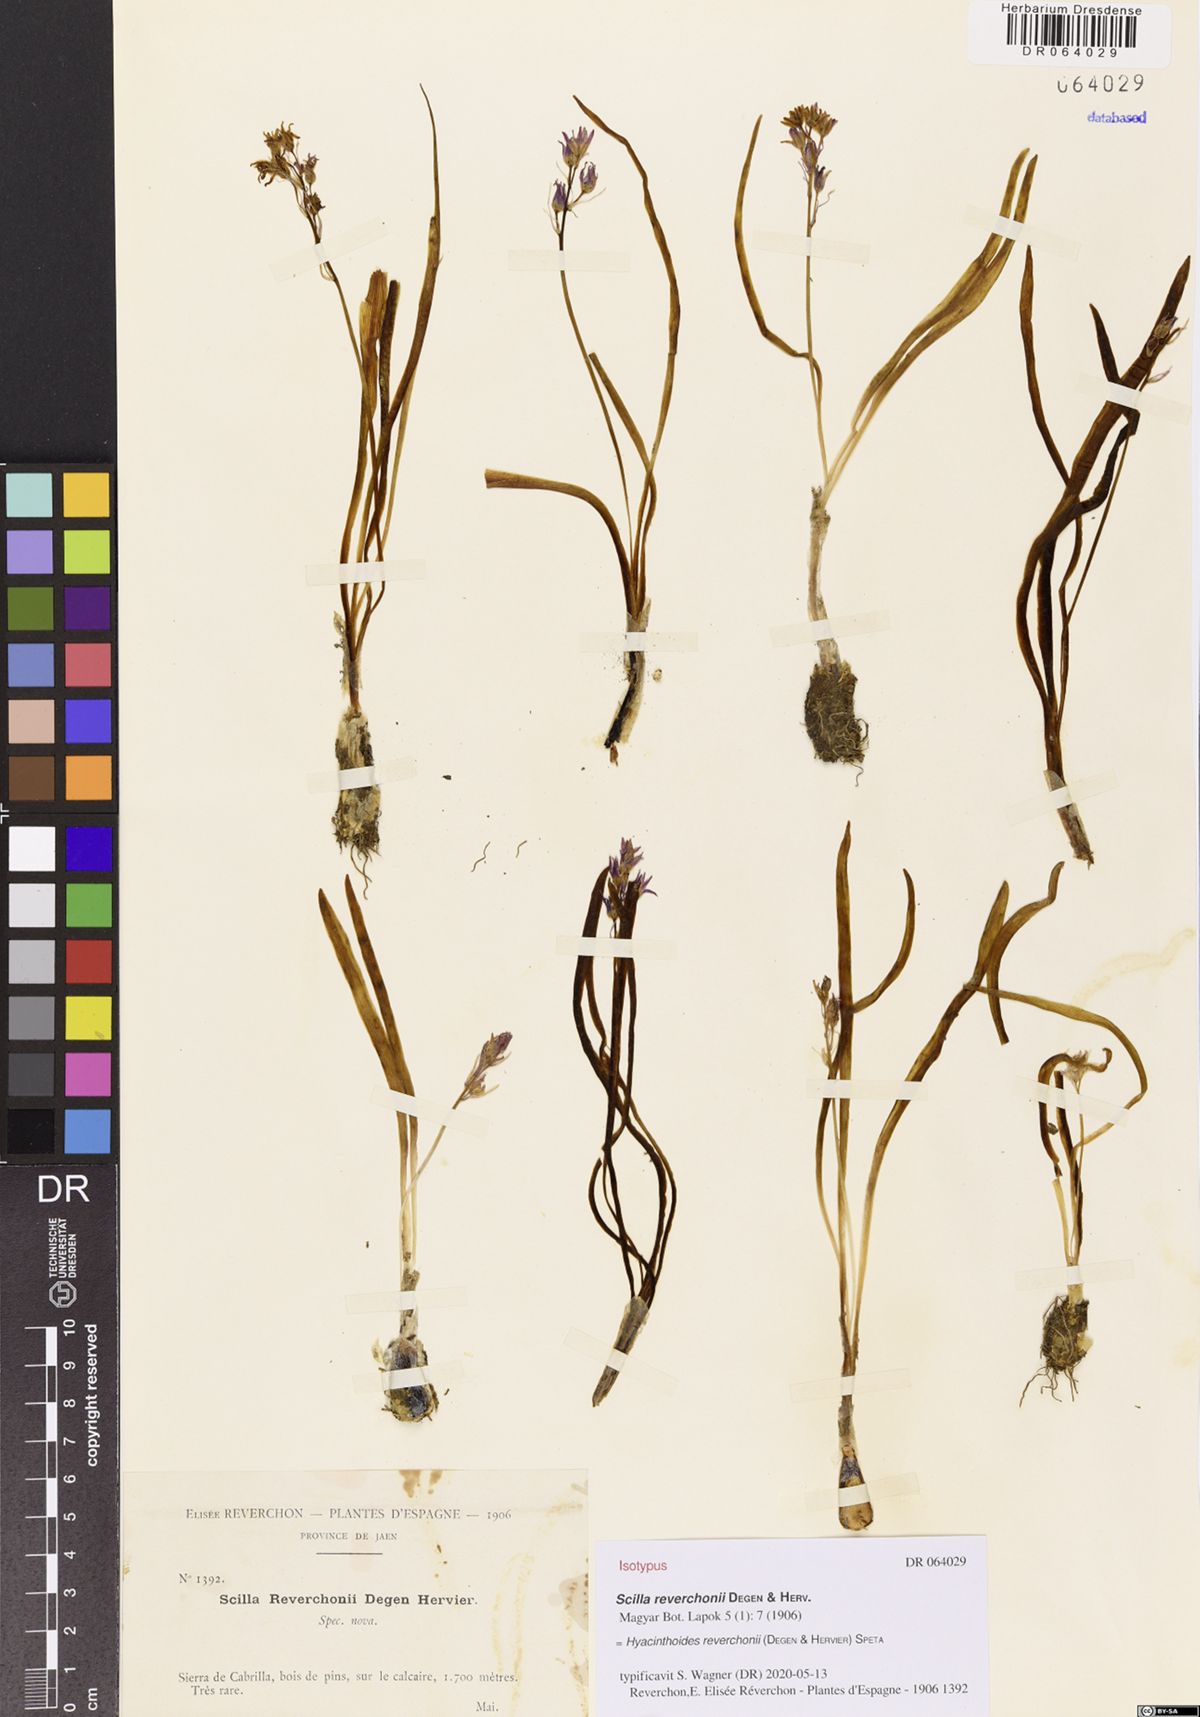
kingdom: Plantae
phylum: Tracheophyta
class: Liliopsida
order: Asparagales
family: Asparagaceae
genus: Hyacinthoides
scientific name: Hyacinthoides reverchonii
